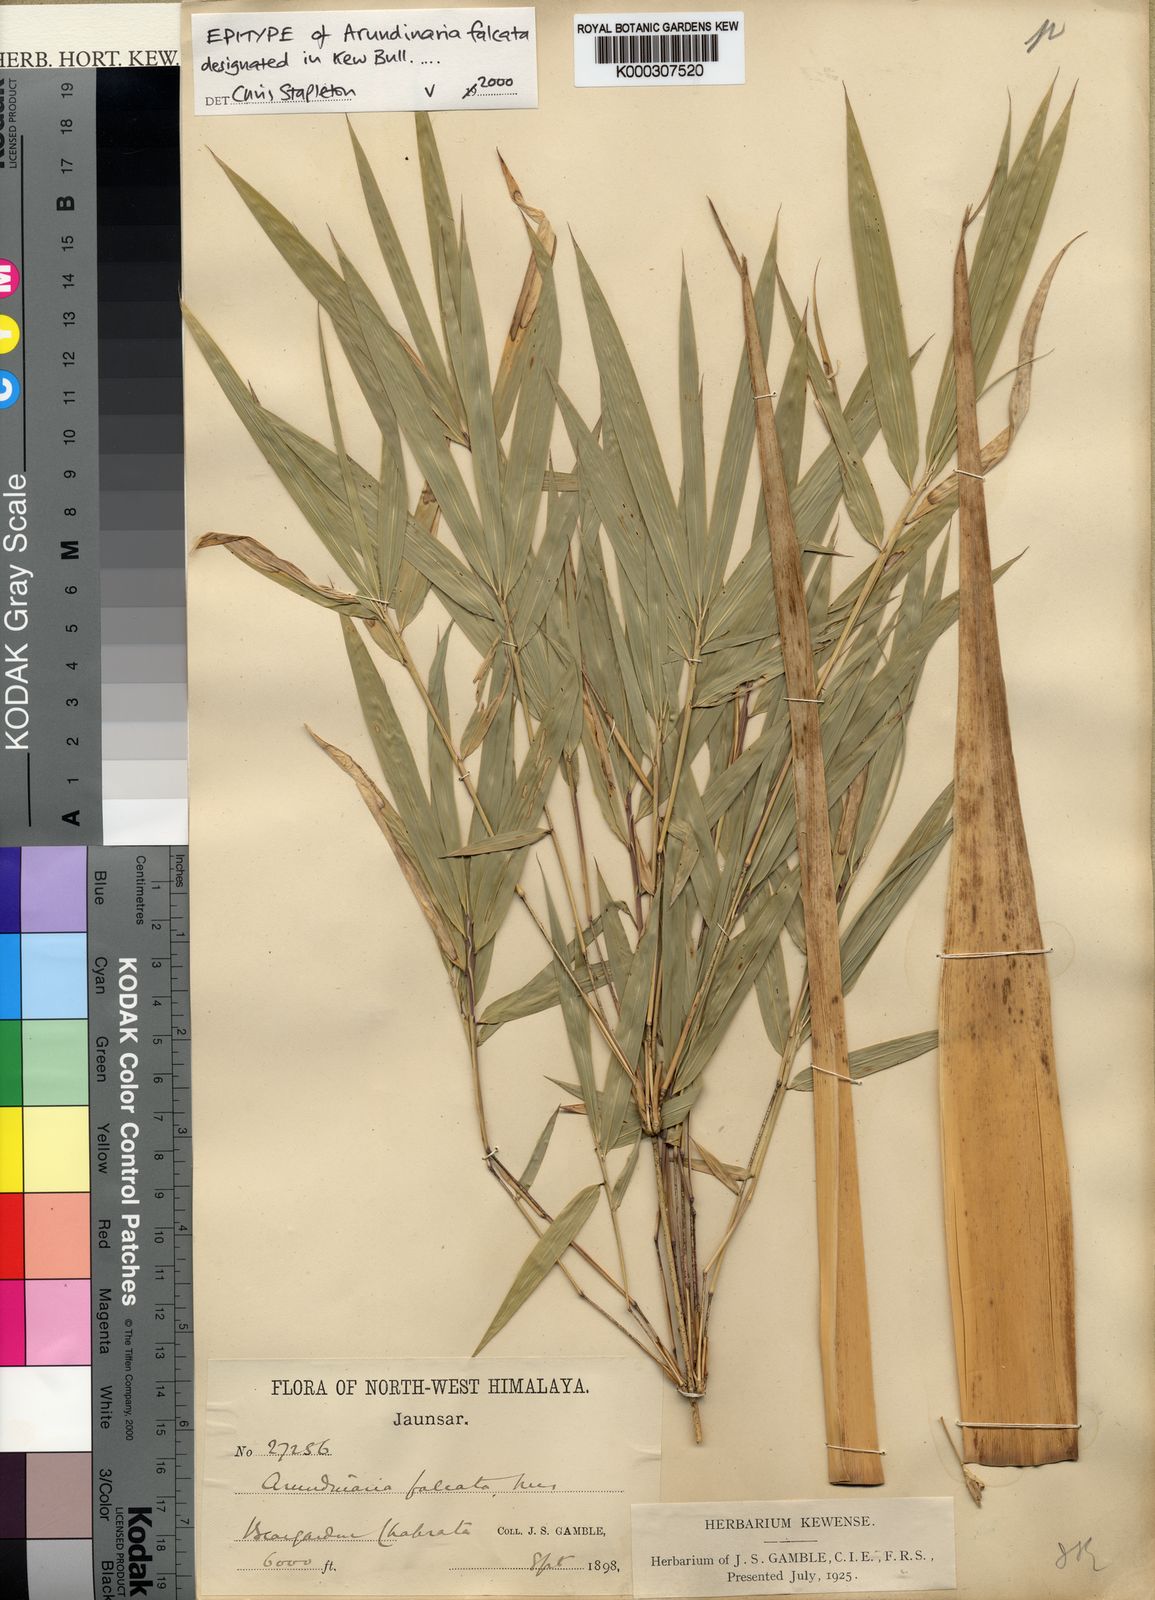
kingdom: Plantae
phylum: Tracheophyta
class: Liliopsida
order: Poales
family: Poaceae
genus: Drepanostachyum
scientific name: Drepanostachyum falcatum
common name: Himalayan bamboo
